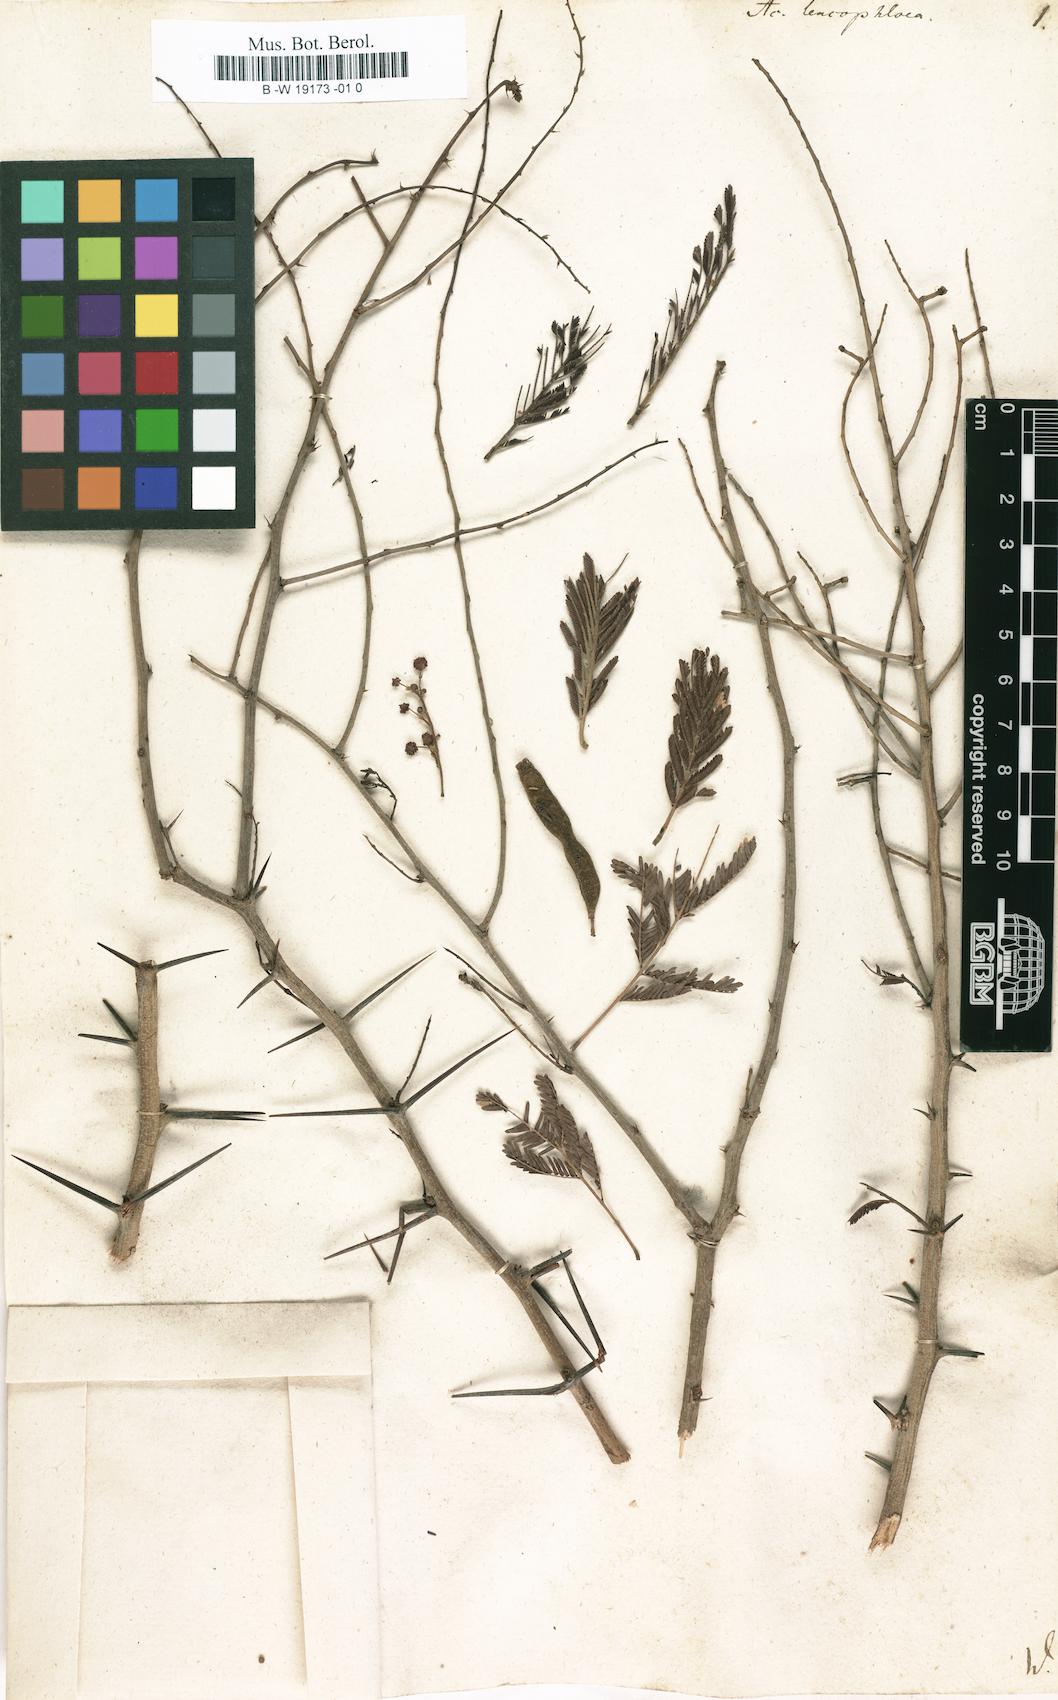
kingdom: Plantae
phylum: Tracheophyta
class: Magnoliopsida
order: Fabales
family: Fabaceae
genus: Vachellia
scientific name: Vachellia leucophloea
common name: Distiller's acacia
